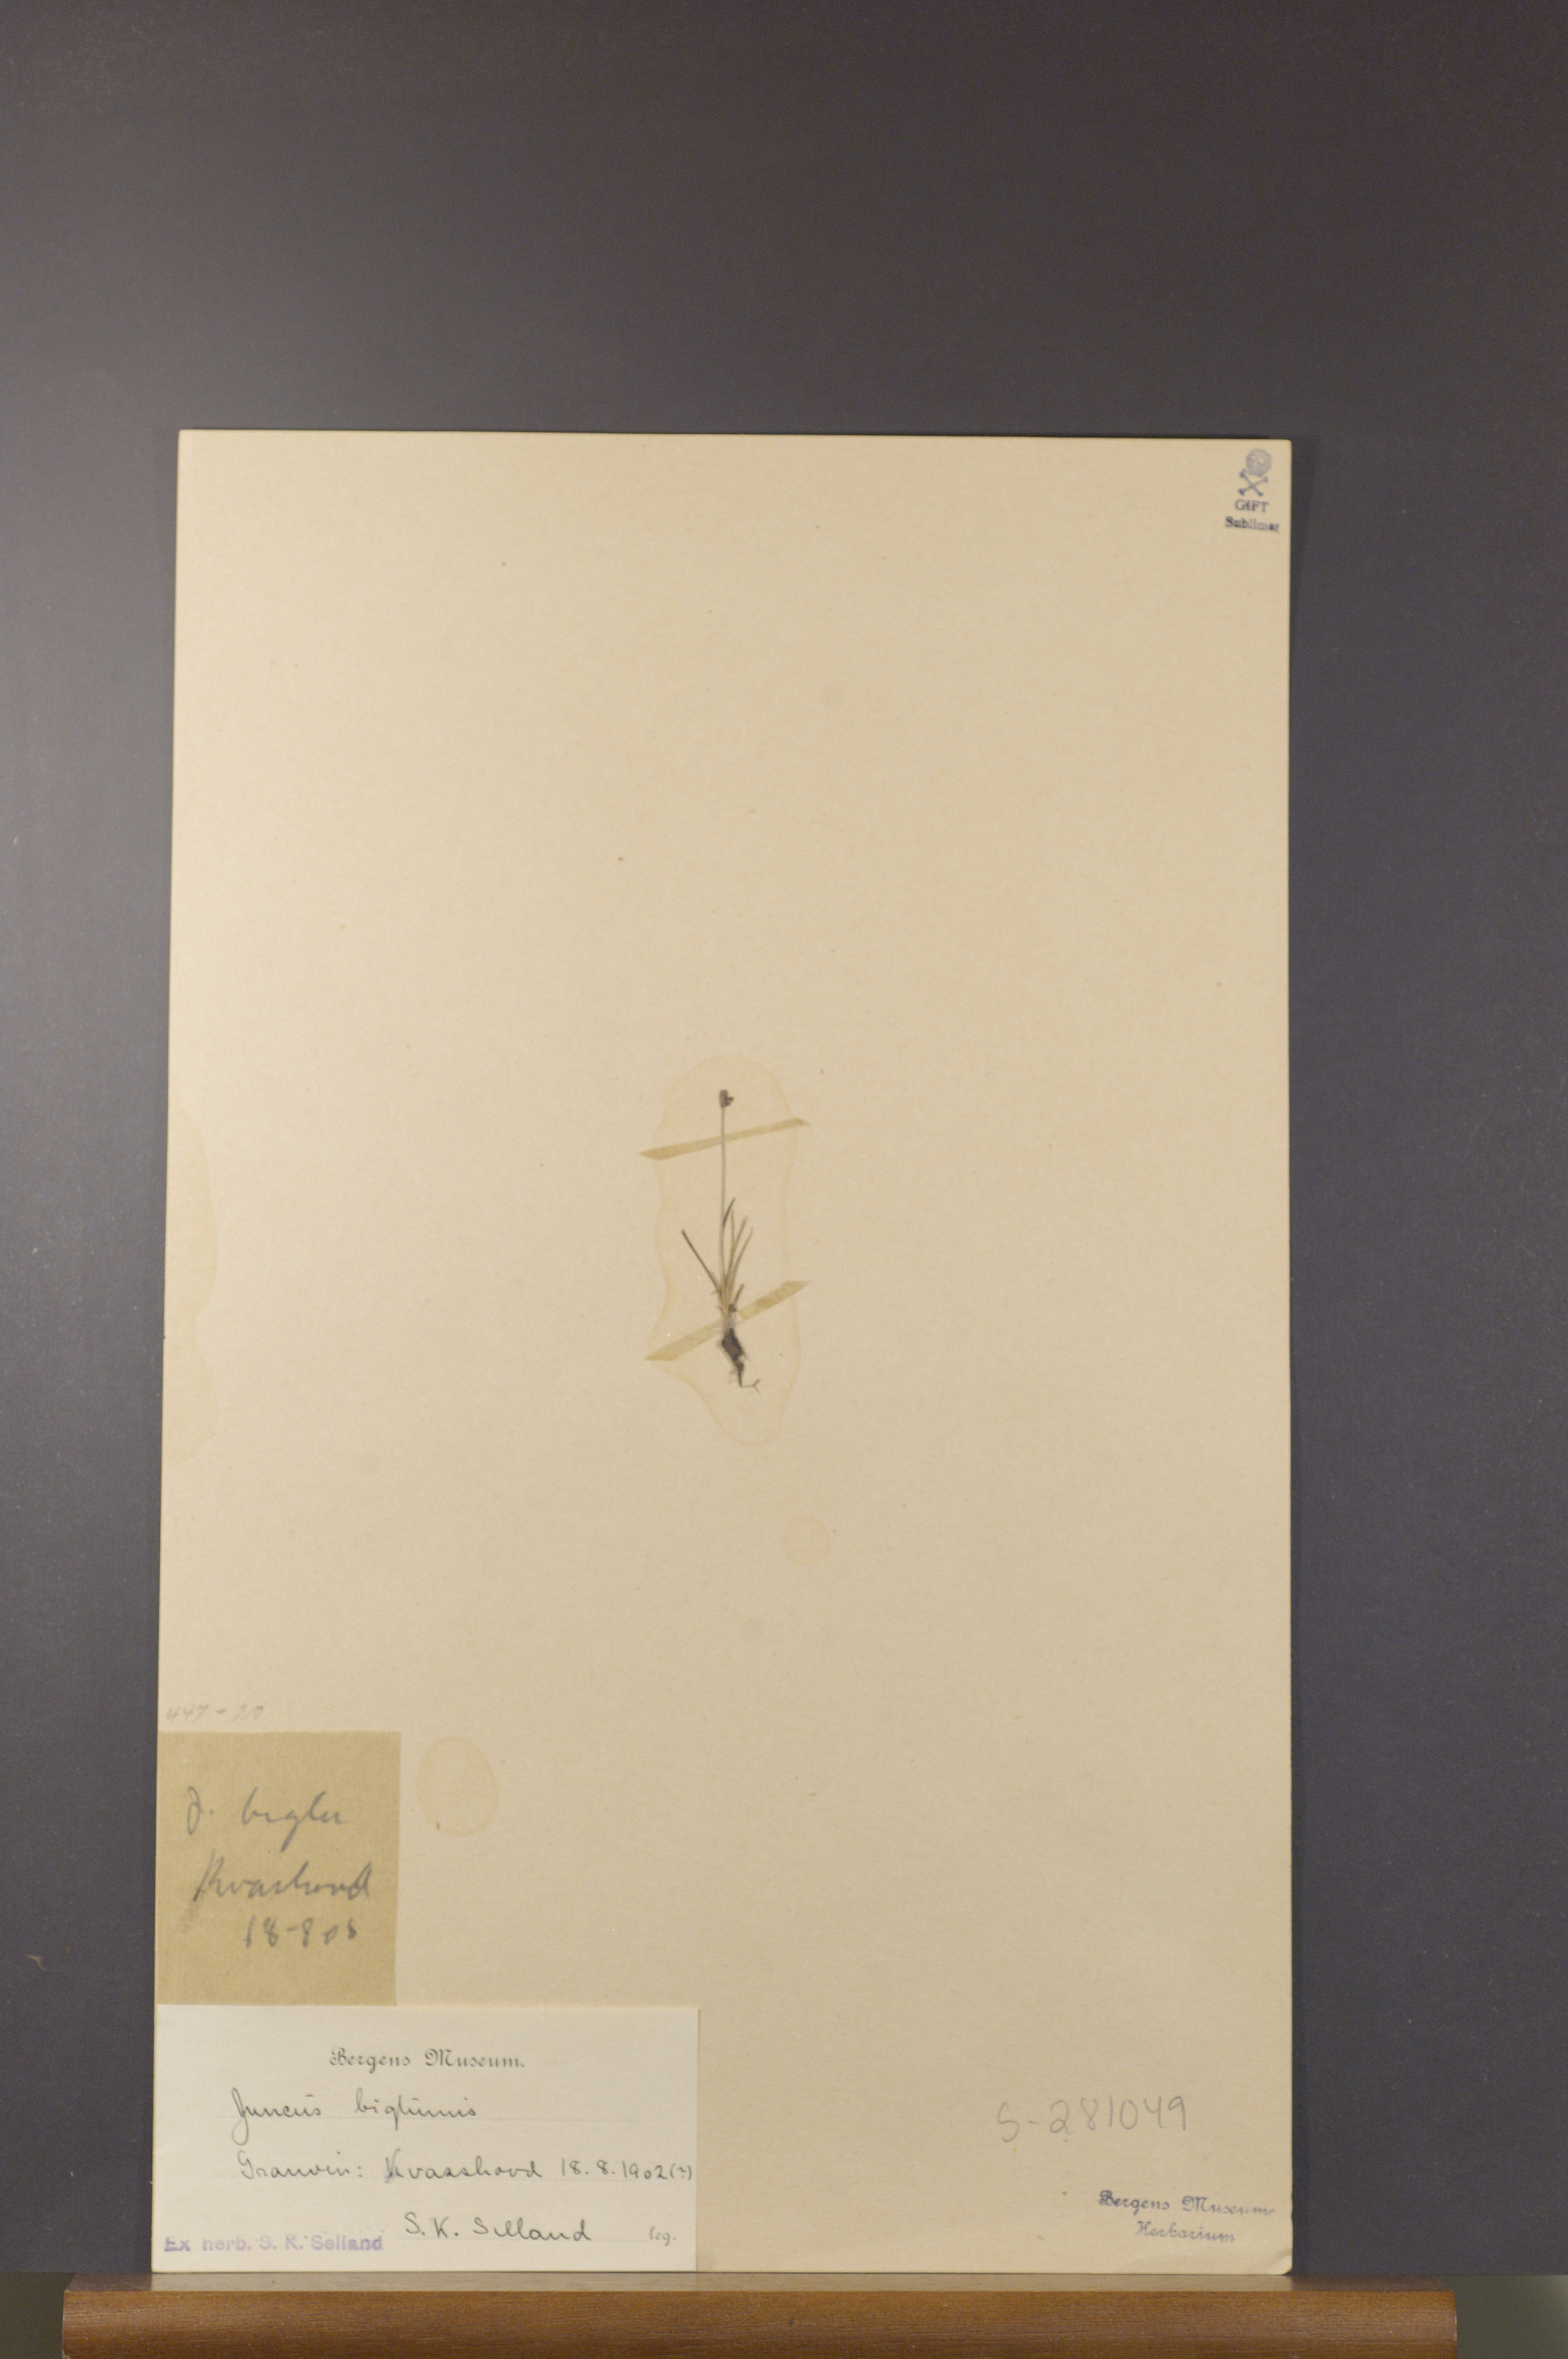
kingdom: Plantae
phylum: Tracheophyta
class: Liliopsida
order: Poales
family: Juncaceae
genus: Juncus
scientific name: Juncus biglumis
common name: Two-flowered rush
